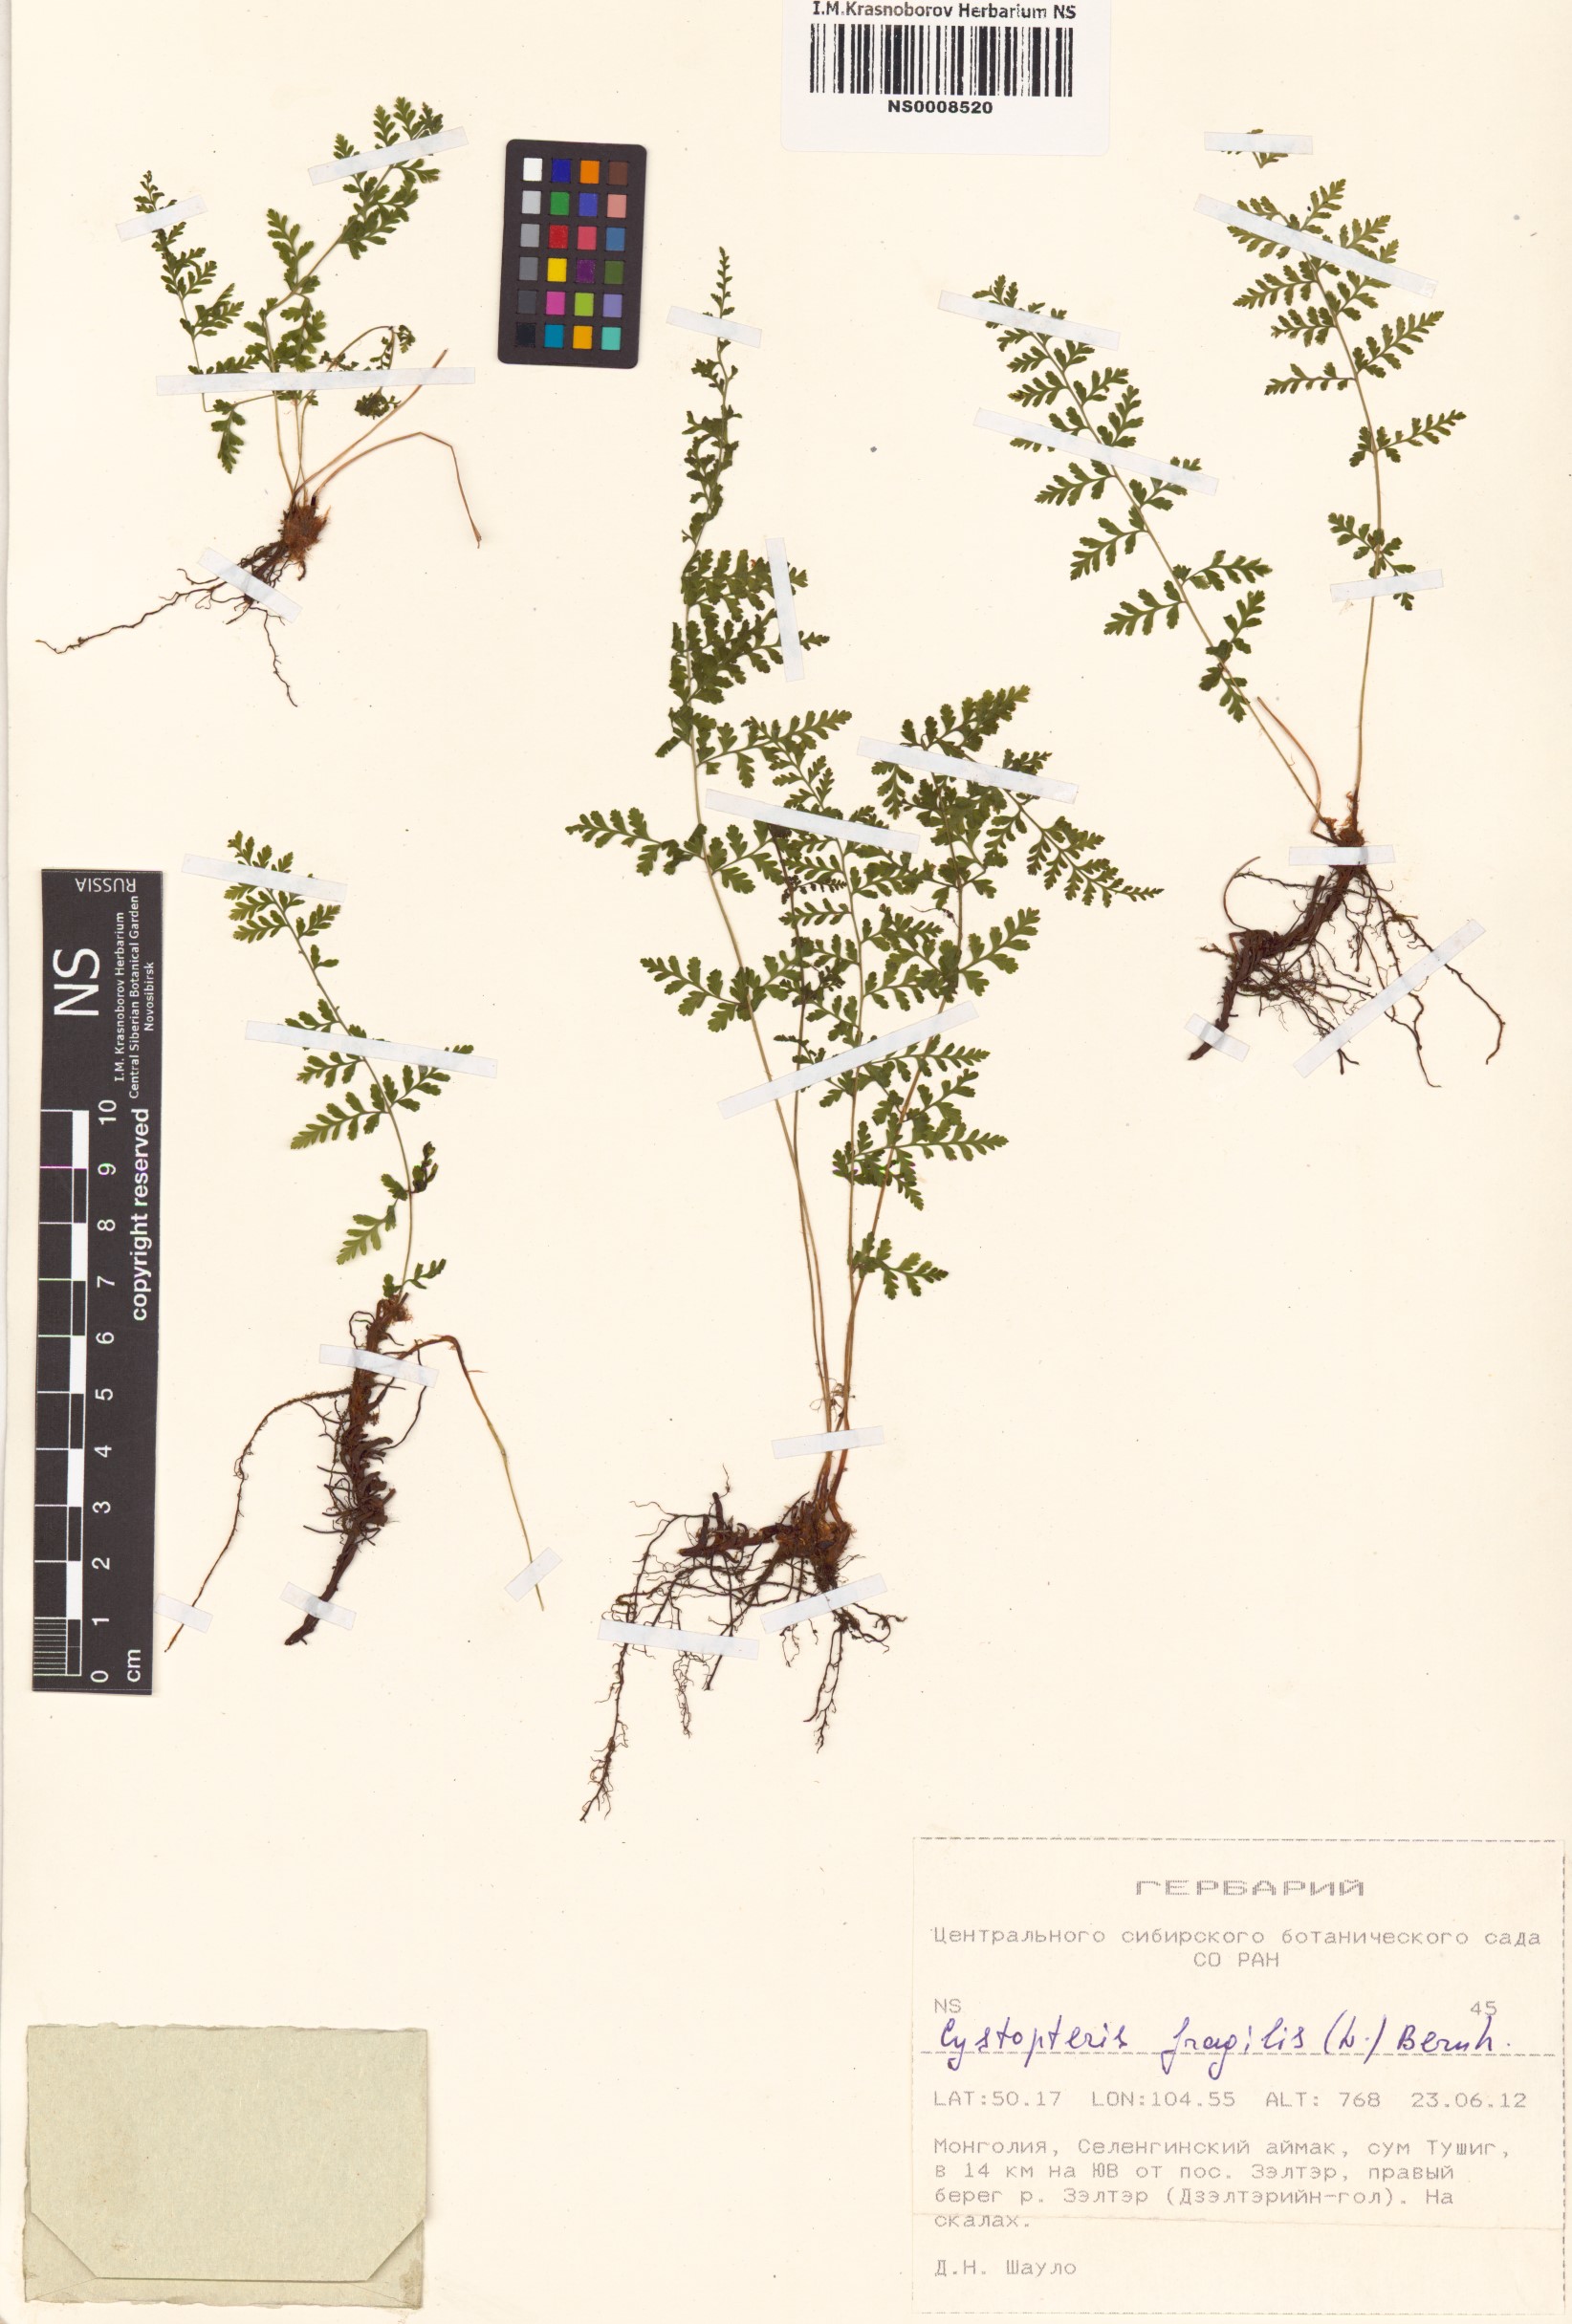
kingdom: Plantae
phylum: Tracheophyta
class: Polypodiopsida
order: Polypodiales
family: Cystopteridaceae
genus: Cystopteris
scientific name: Cystopteris fragilis
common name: Brittle bladder fern
